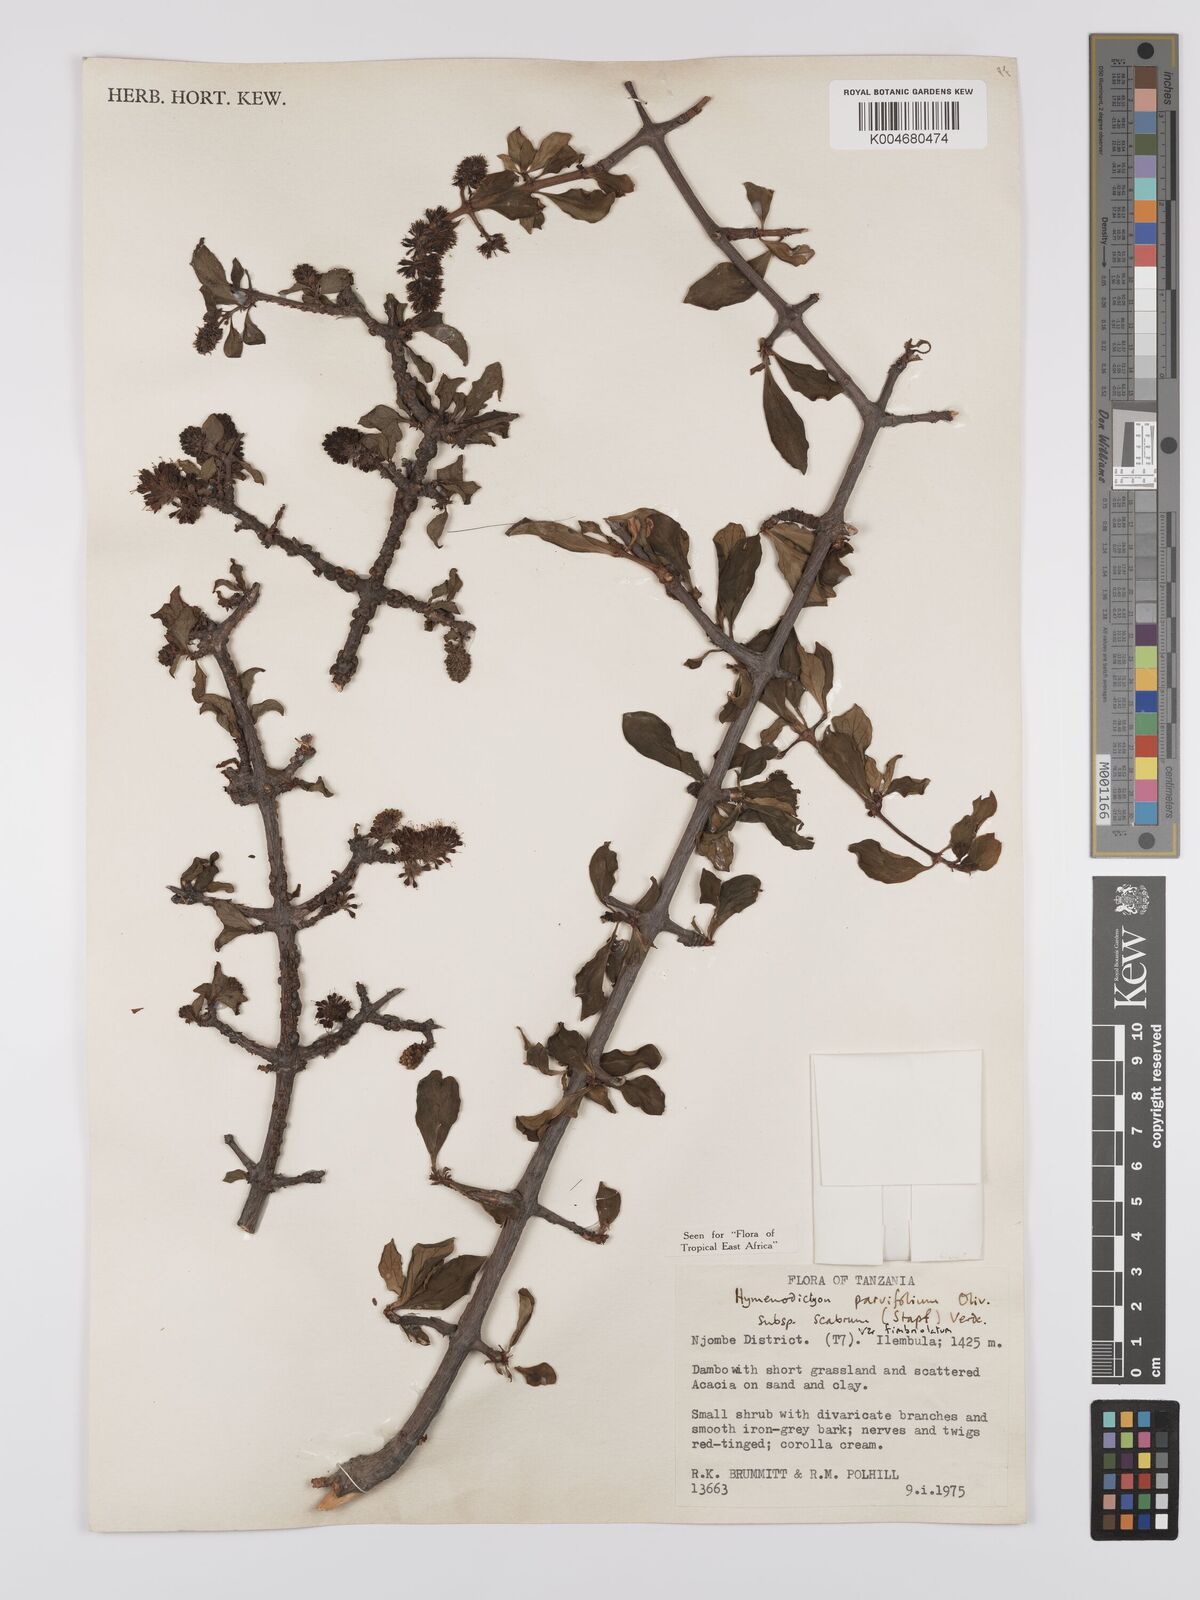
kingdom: Plantae
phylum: Tracheophyta
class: Magnoliopsida
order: Gentianales
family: Rubiaceae
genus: Hymenodictyon
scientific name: Hymenodictyon scabrum
